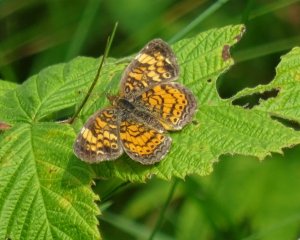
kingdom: Animalia
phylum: Arthropoda
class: Insecta
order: Lepidoptera
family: Nymphalidae
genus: Phyciodes
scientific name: Phyciodes tharos
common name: Northern Crescent
